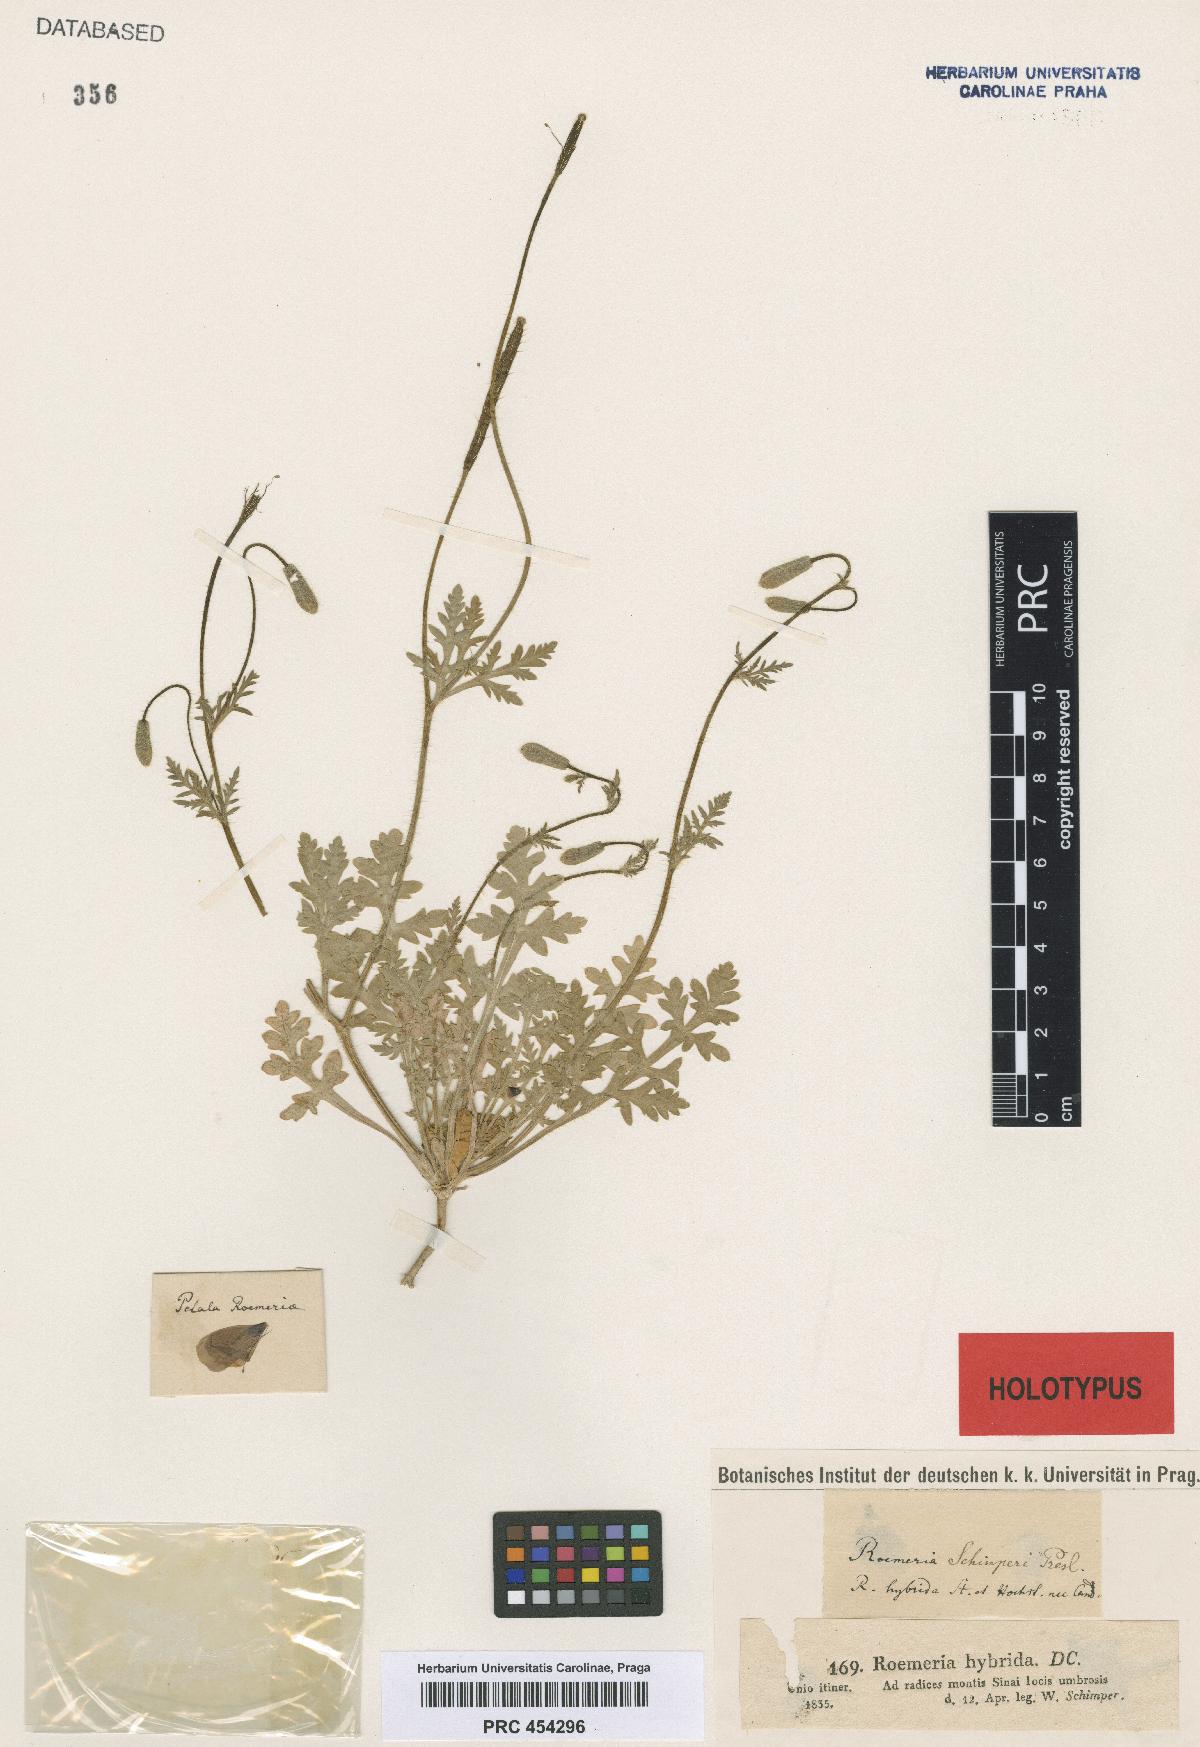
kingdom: Plantae
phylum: Tracheophyta
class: Magnoliopsida
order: Ranunculales
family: Papaveraceae
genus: Roemeria
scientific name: Roemeria hybrida
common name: Violet horned-poppy
